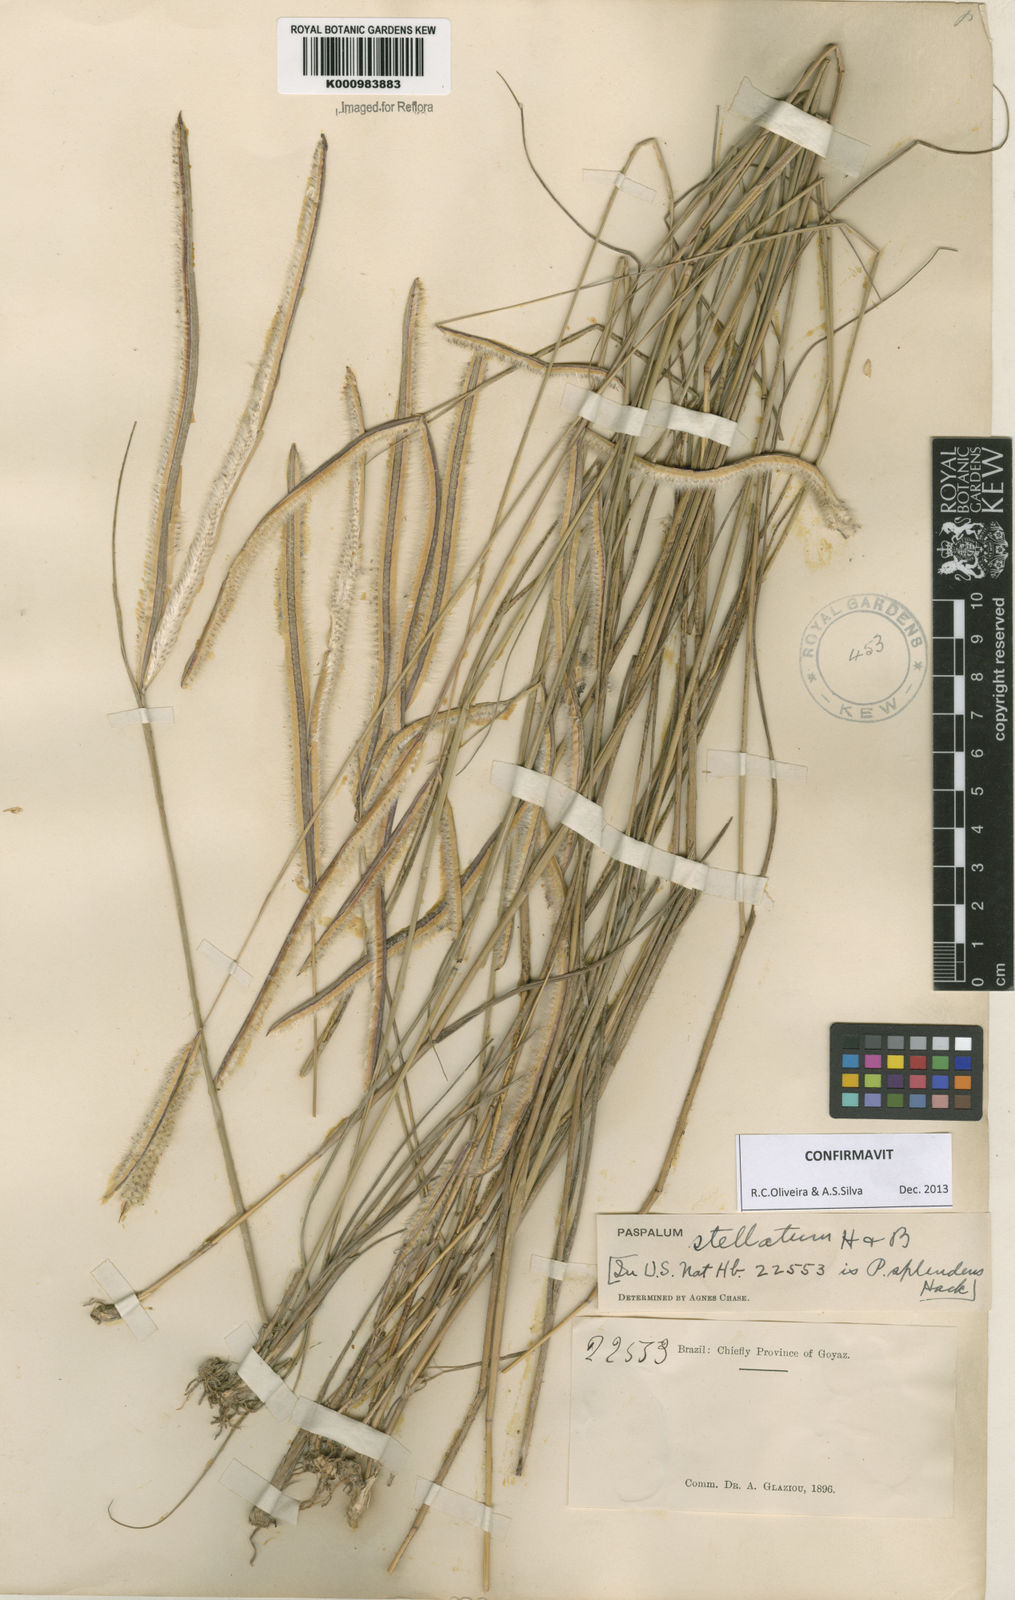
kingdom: Plantae
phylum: Tracheophyta
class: Liliopsida
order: Poales
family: Poaceae
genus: Paspalum
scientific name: Paspalum
